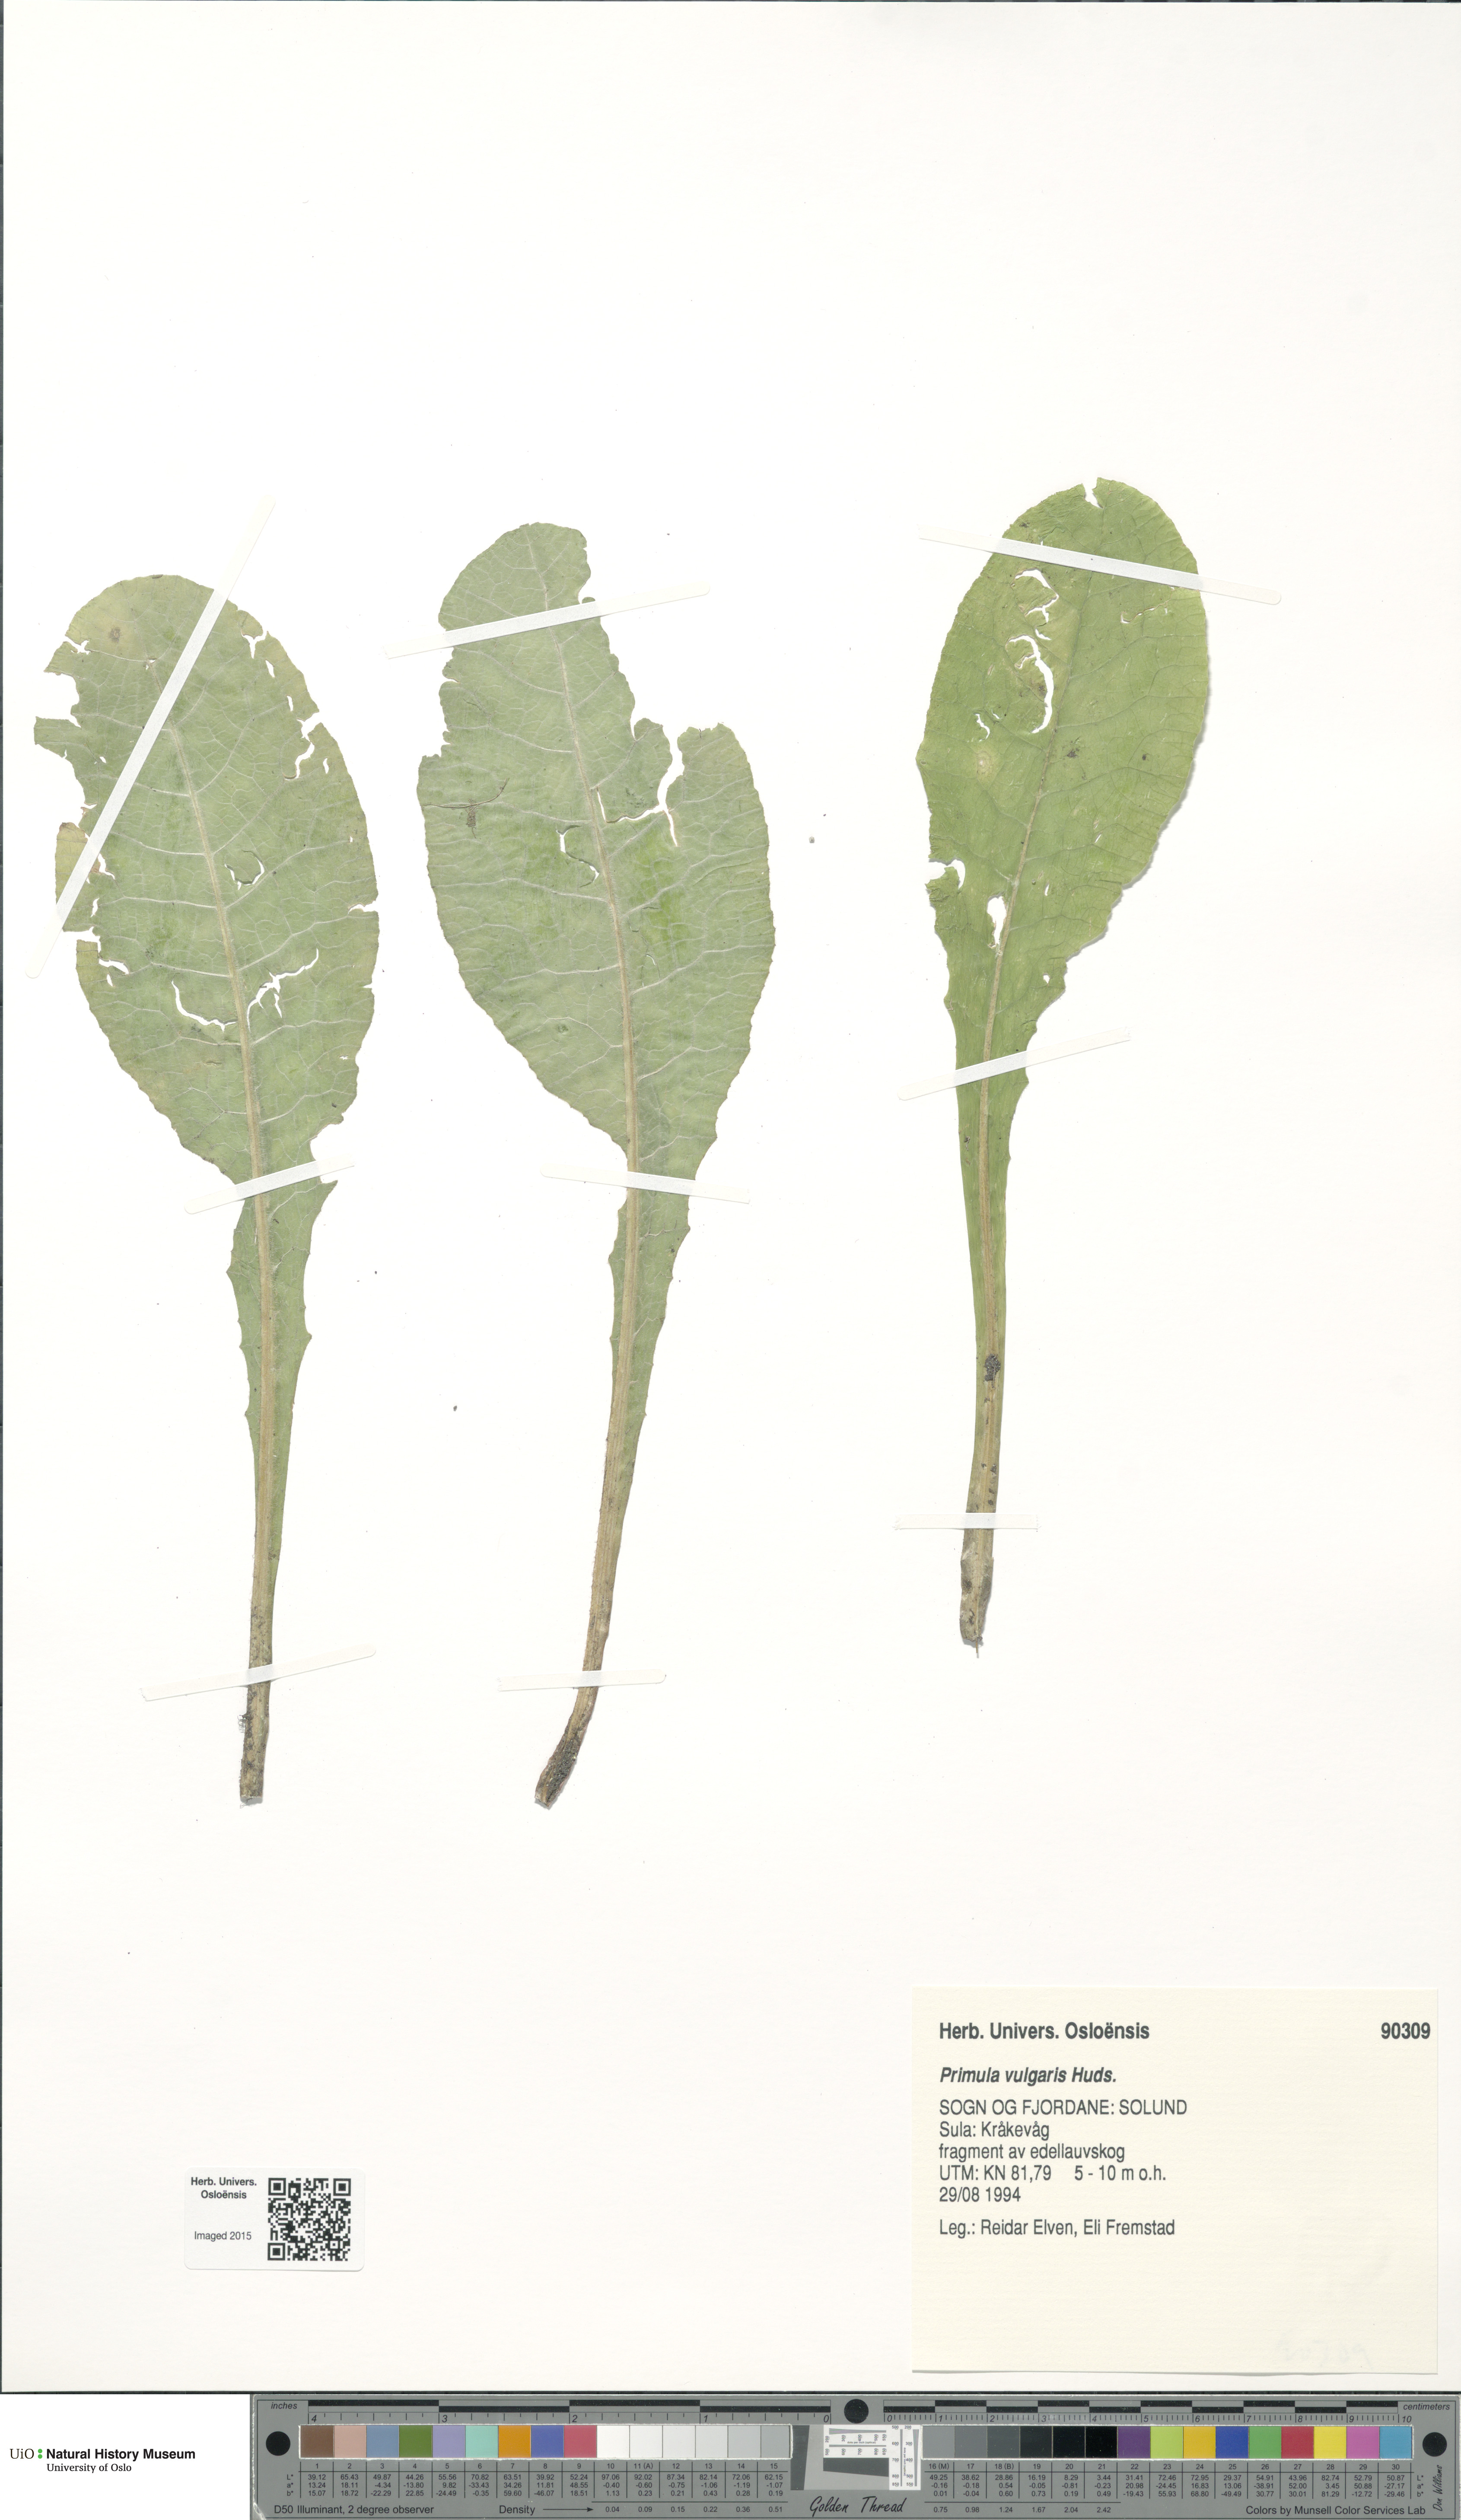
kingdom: Plantae
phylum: Tracheophyta
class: Magnoliopsida
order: Ericales
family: Primulaceae
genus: Primula
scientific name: Primula vulgaris
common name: Primrose
